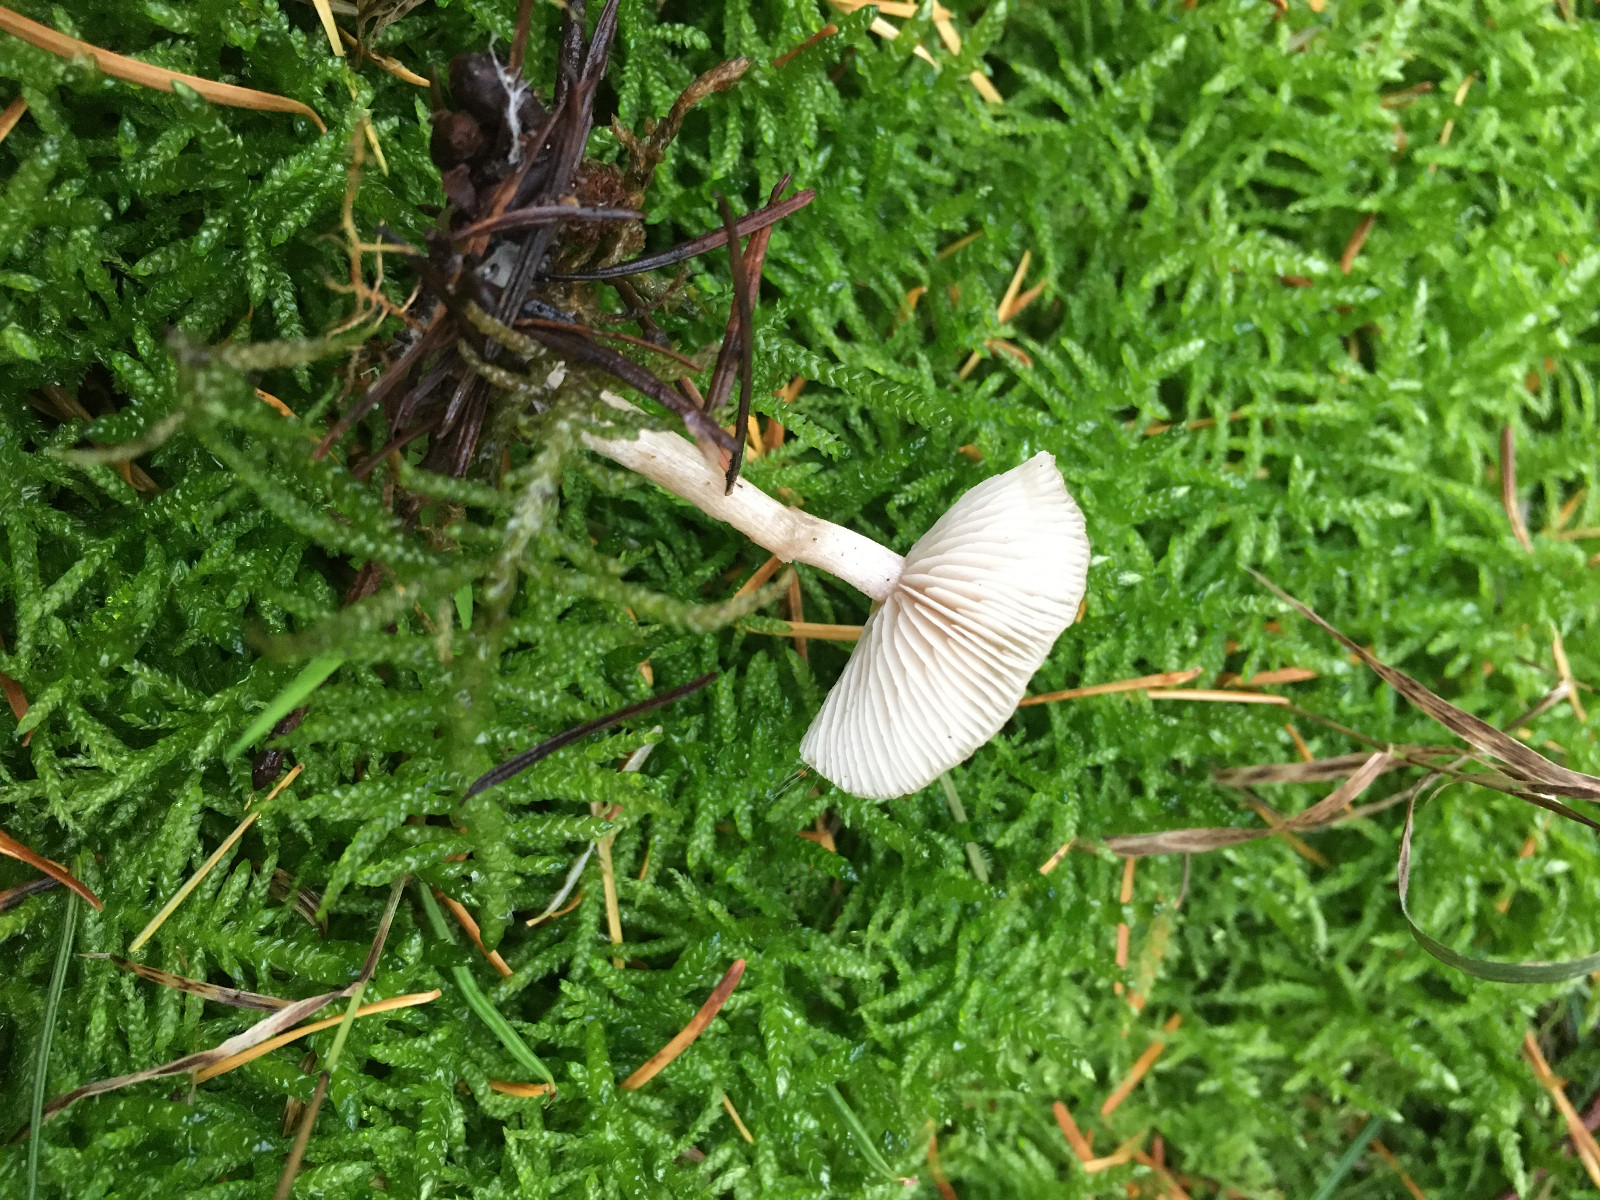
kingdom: Fungi
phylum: Basidiomycota
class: Agaricomycetes
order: Agaricales
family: Tricholomataceae
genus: Clitocybe
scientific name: Clitocybe fragrans
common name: vellugtende tragthat
